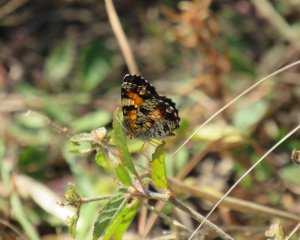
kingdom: Animalia
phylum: Arthropoda
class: Insecta
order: Lepidoptera
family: Nymphalidae
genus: Phyciodes
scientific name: Phyciodes phaon
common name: Phaon Crescent
